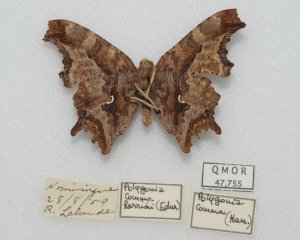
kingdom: Animalia
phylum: Arthropoda
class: Insecta
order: Lepidoptera
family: Nymphalidae
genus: Polygonia
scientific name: Polygonia comma
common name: Eastern Comma
